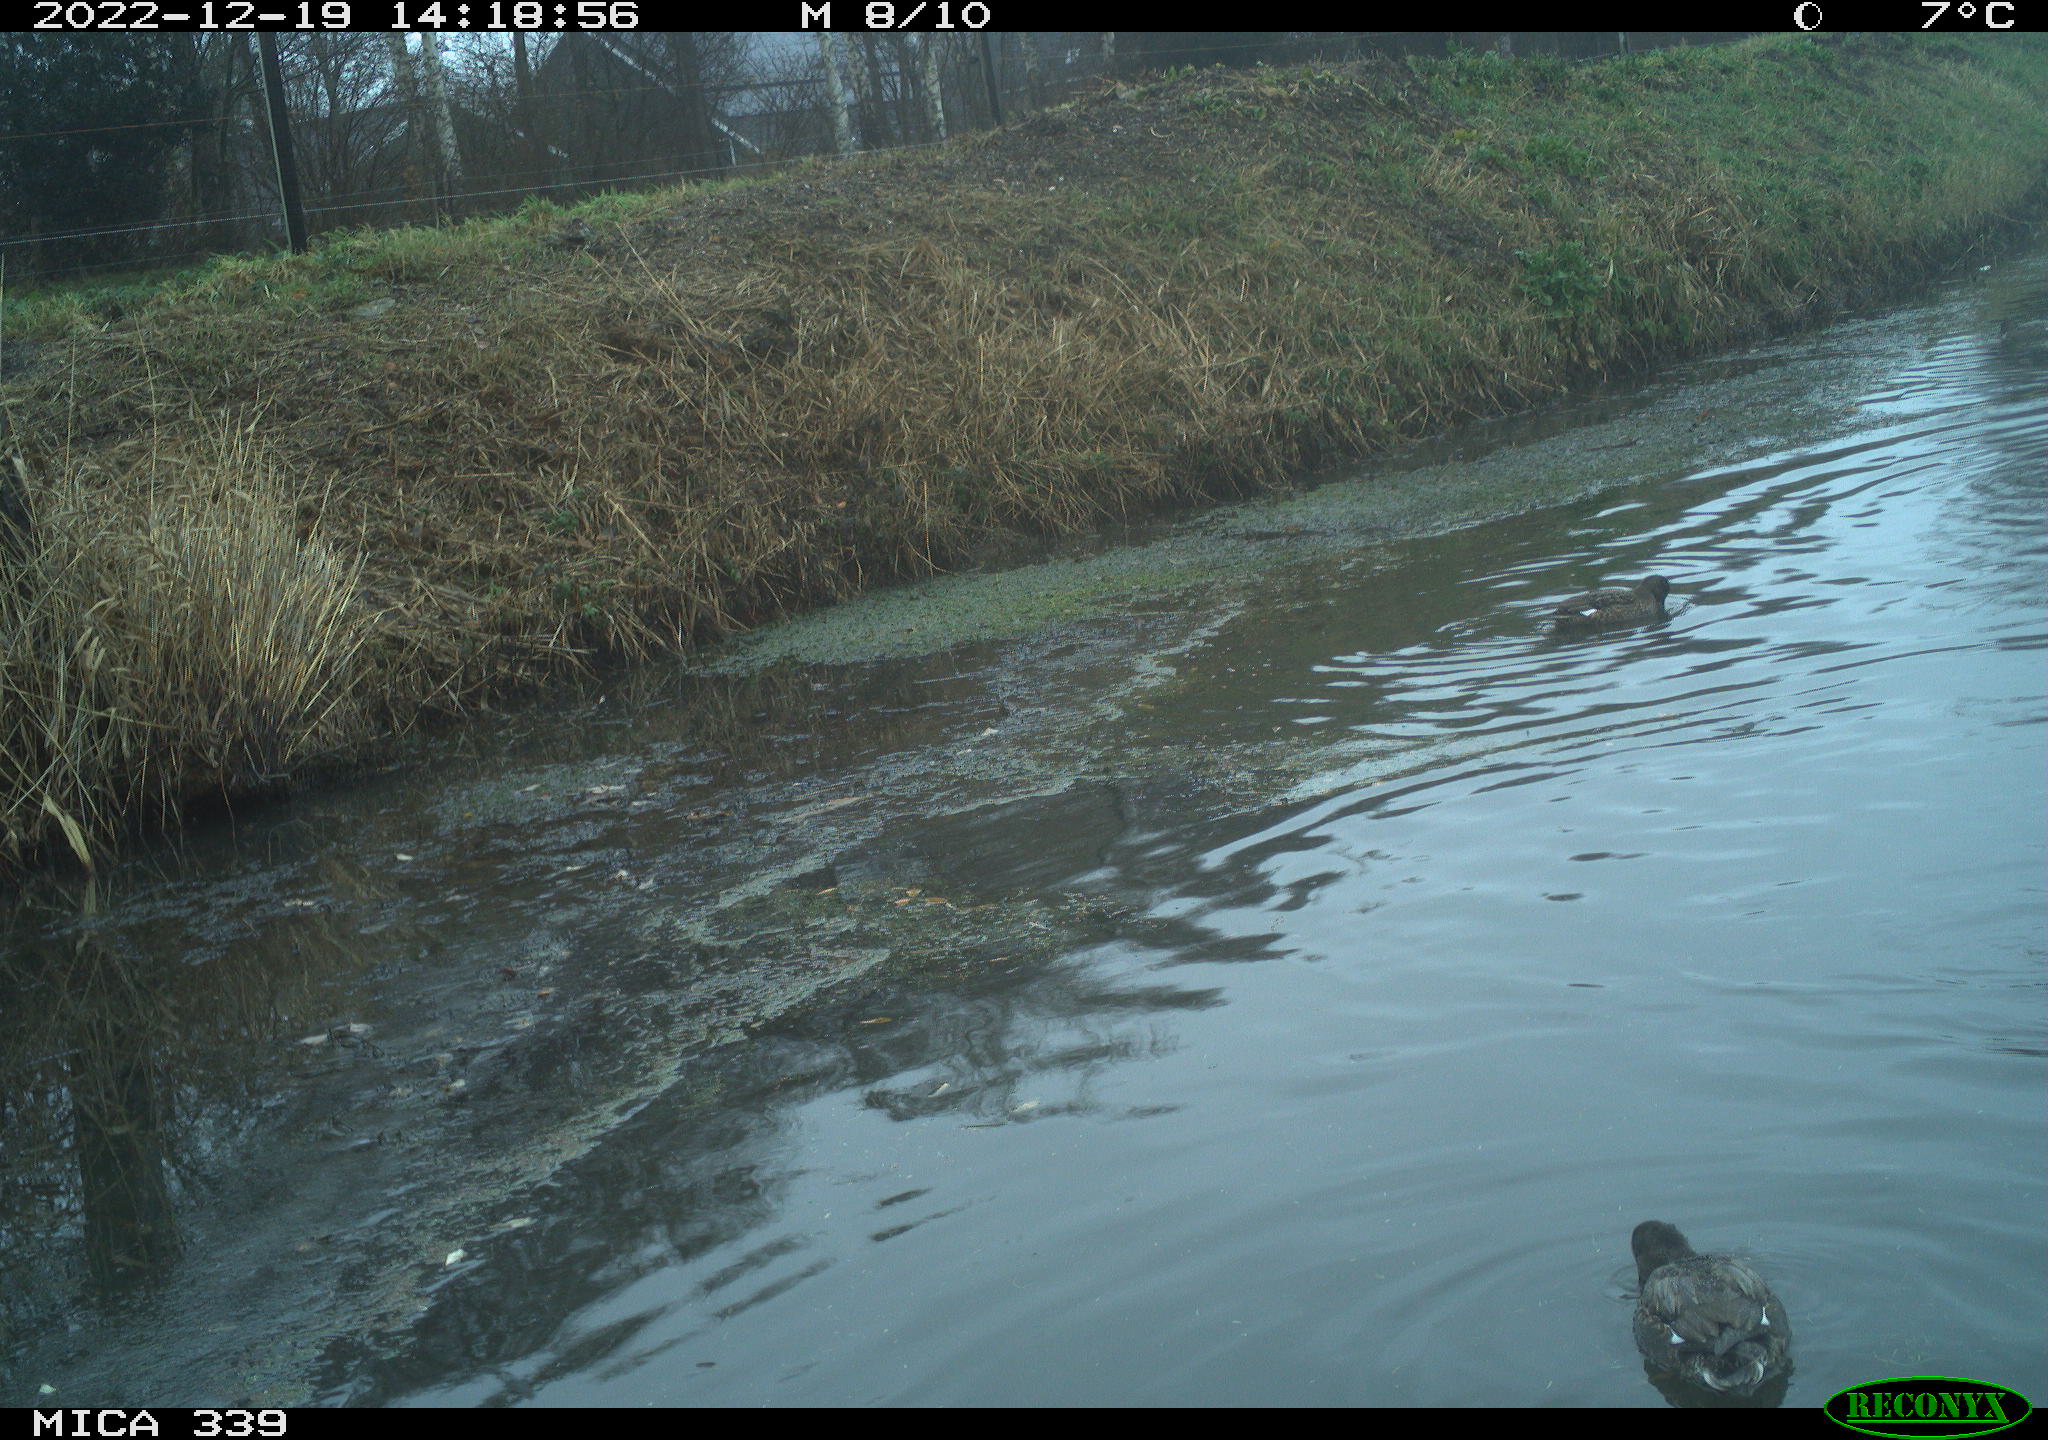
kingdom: Animalia
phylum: Chordata
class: Aves
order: Anseriformes
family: Anatidae
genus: Anas
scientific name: Anas
